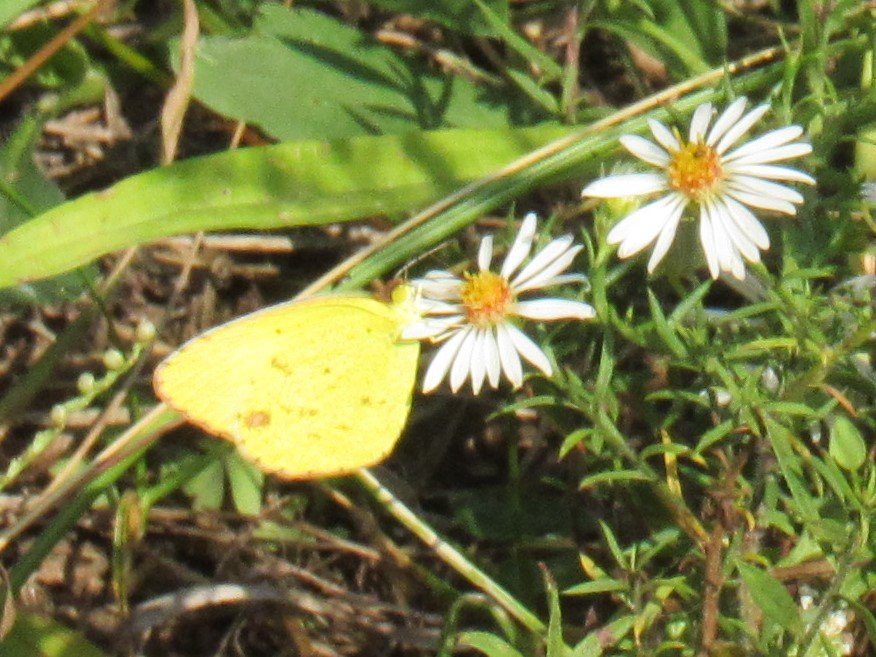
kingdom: Animalia
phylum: Arthropoda
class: Insecta
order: Lepidoptera
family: Pieridae
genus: Pyrisitia
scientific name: Pyrisitia lisa
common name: Little Yellow
